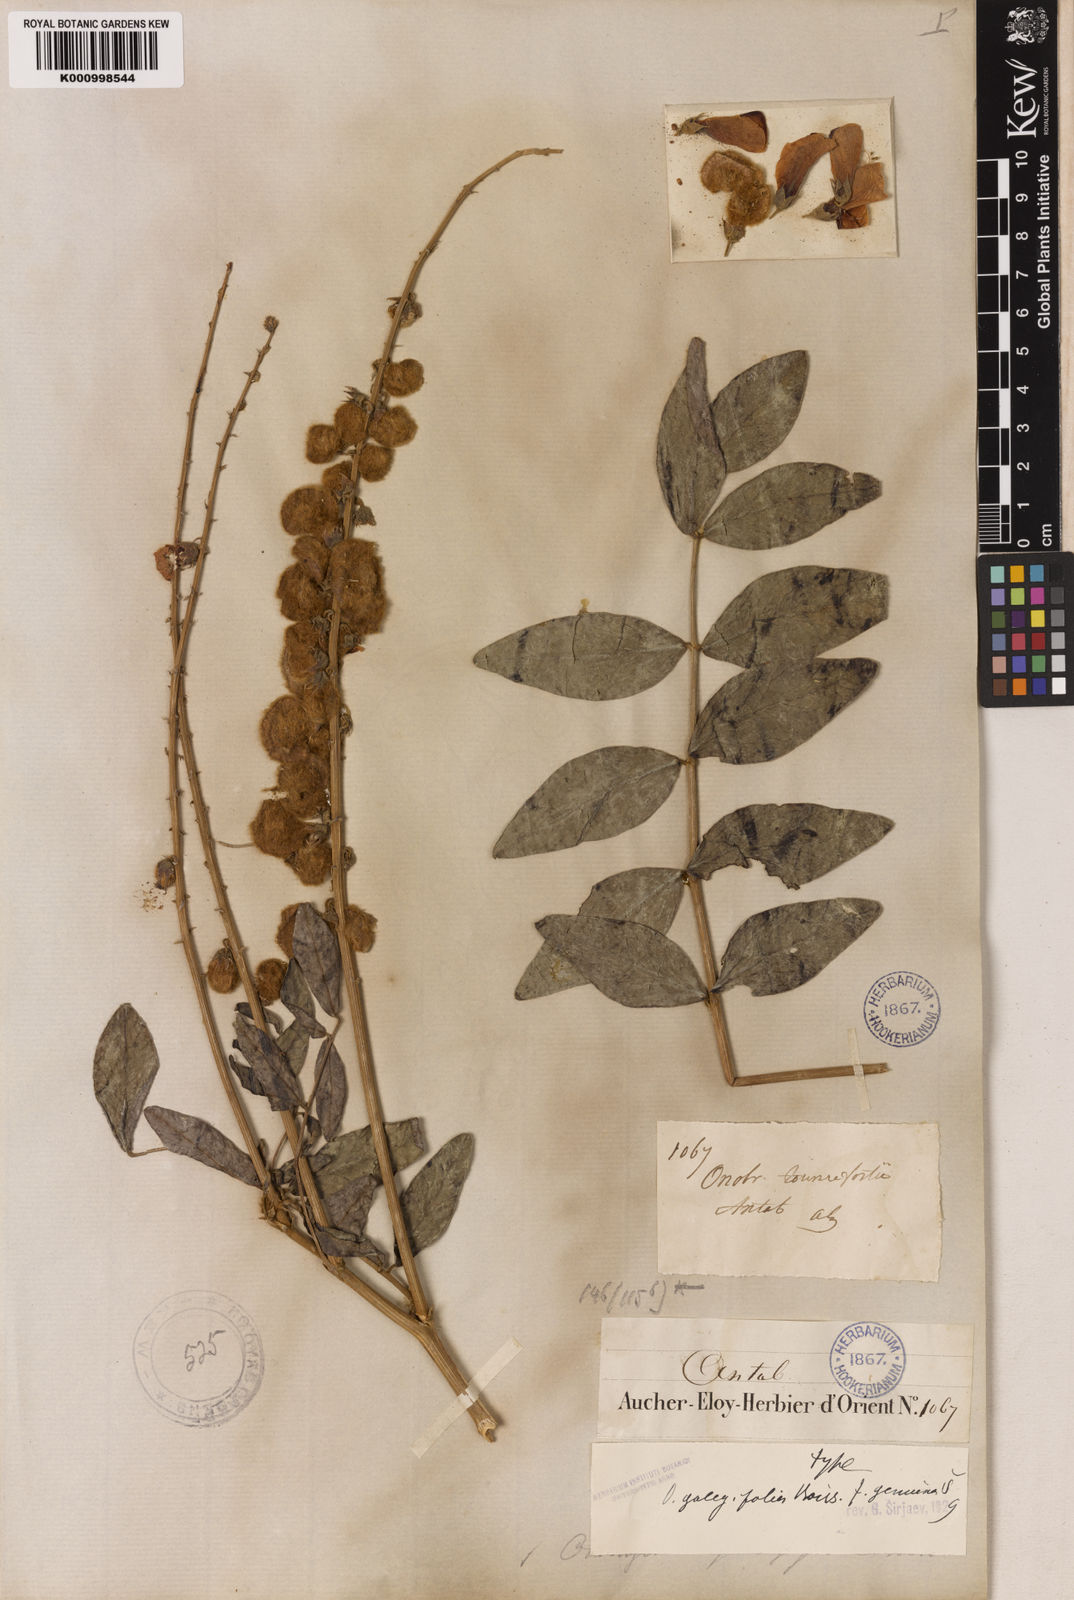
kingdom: Plantae
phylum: Tracheophyta
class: Magnoliopsida
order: Fabales
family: Fabaceae
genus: Onobrychis
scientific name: Onobrychis galegifolia
